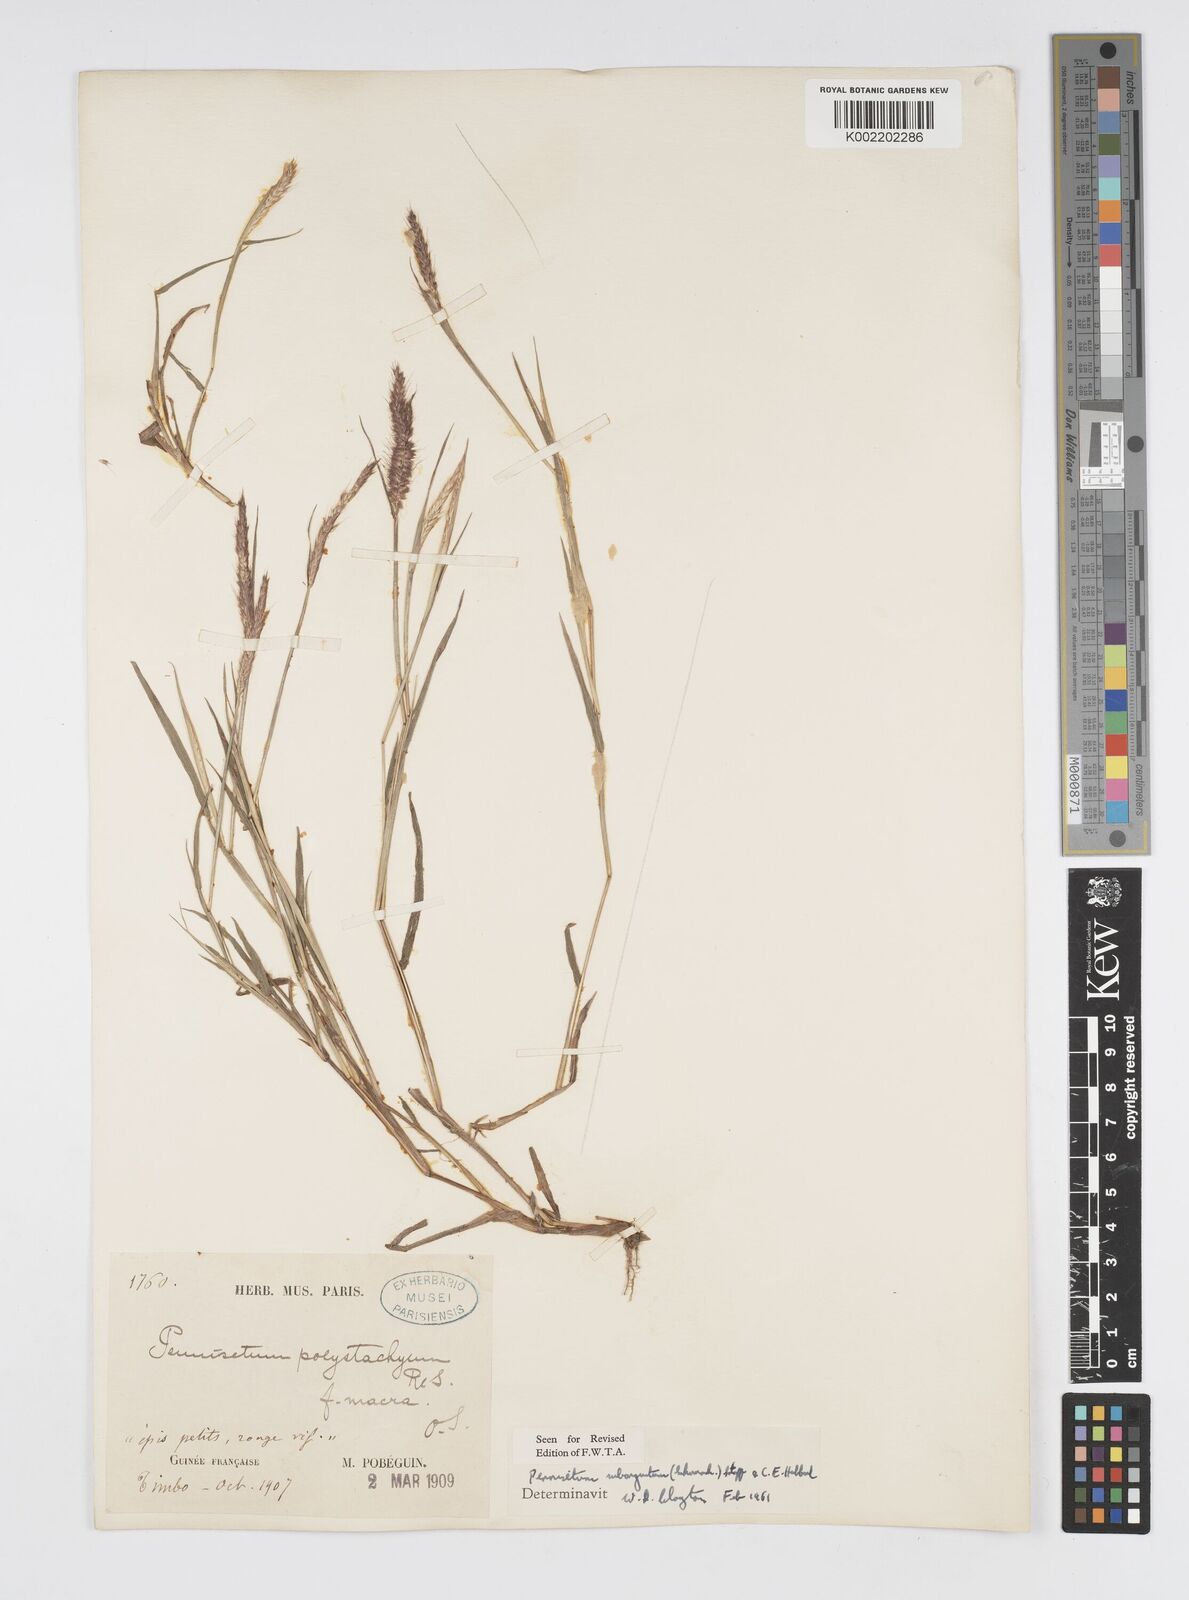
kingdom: Plantae
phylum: Tracheophyta
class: Liliopsida
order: Poales
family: Poaceae
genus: Setaria
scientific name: Setaria parviflora
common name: Knotroot bristle-grass
